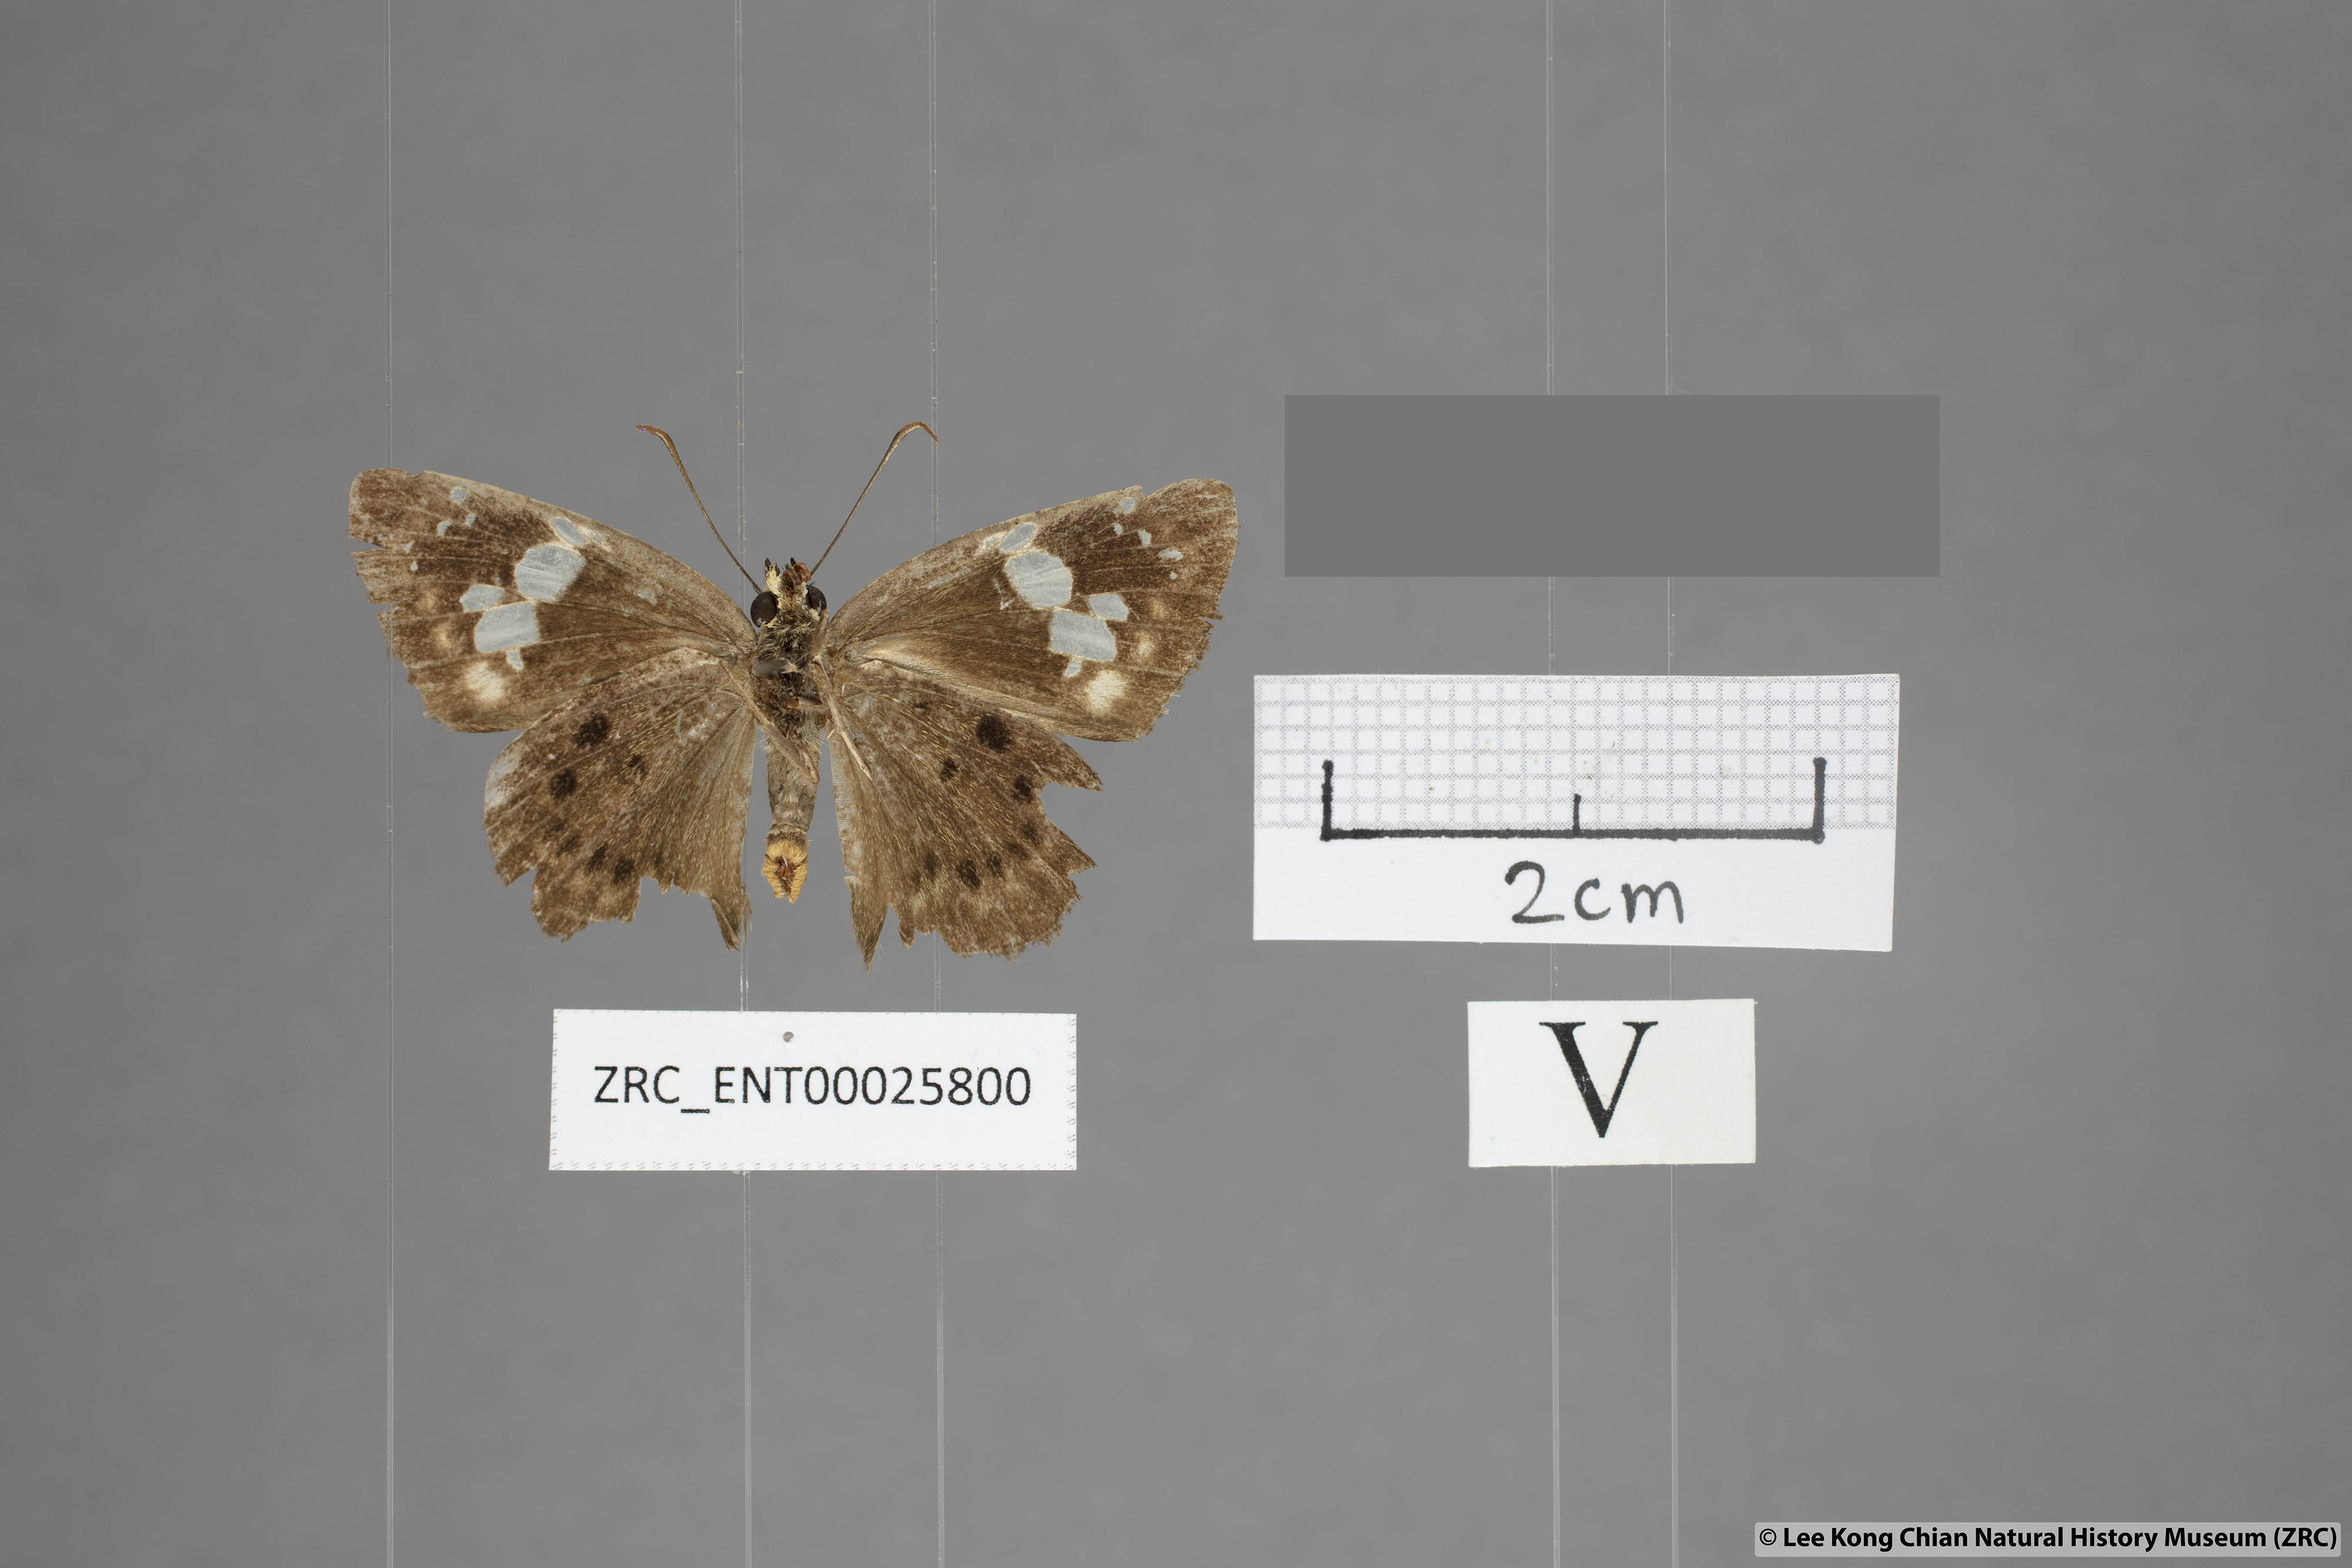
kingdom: Animalia
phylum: Arthropoda
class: Insecta
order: Lepidoptera
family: Hesperiidae
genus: Coladenia
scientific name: Coladenia agnioides
